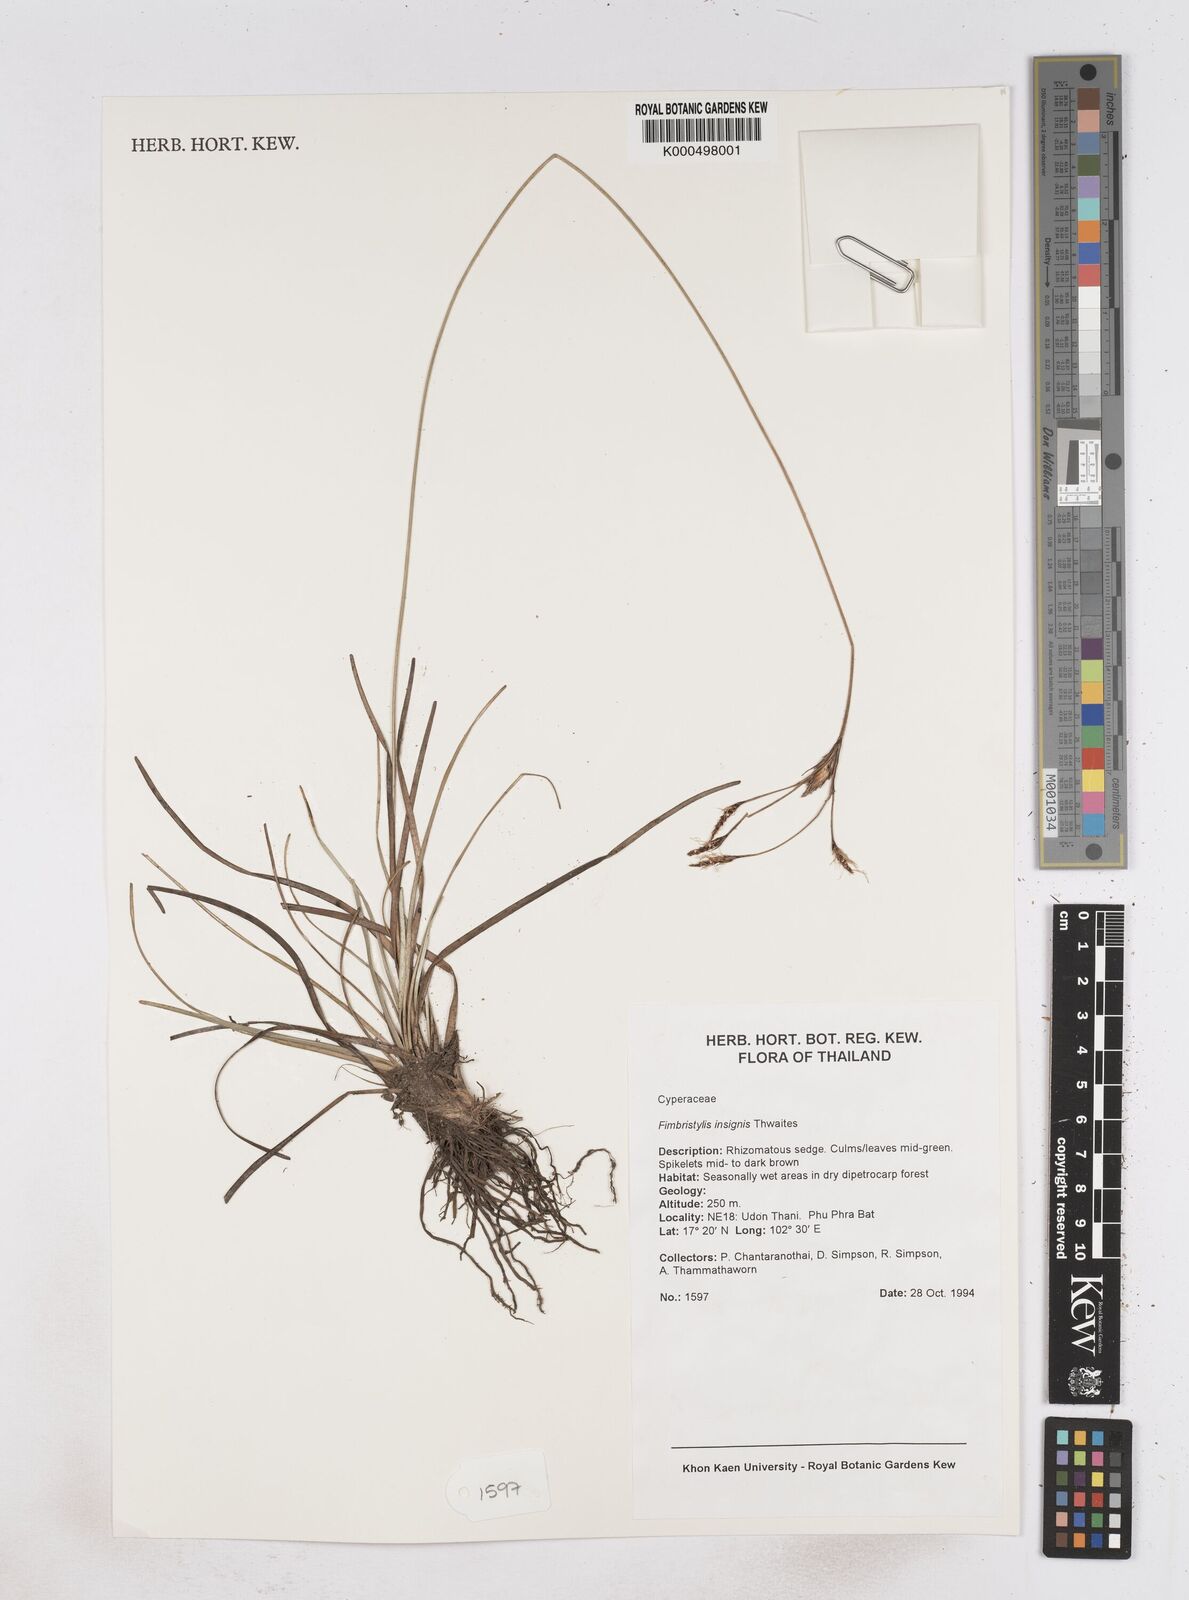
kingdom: Plantae
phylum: Tracheophyta
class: Liliopsida
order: Poales
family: Cyperaceae
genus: Fimbristylis
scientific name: Fimbristylis insignis
